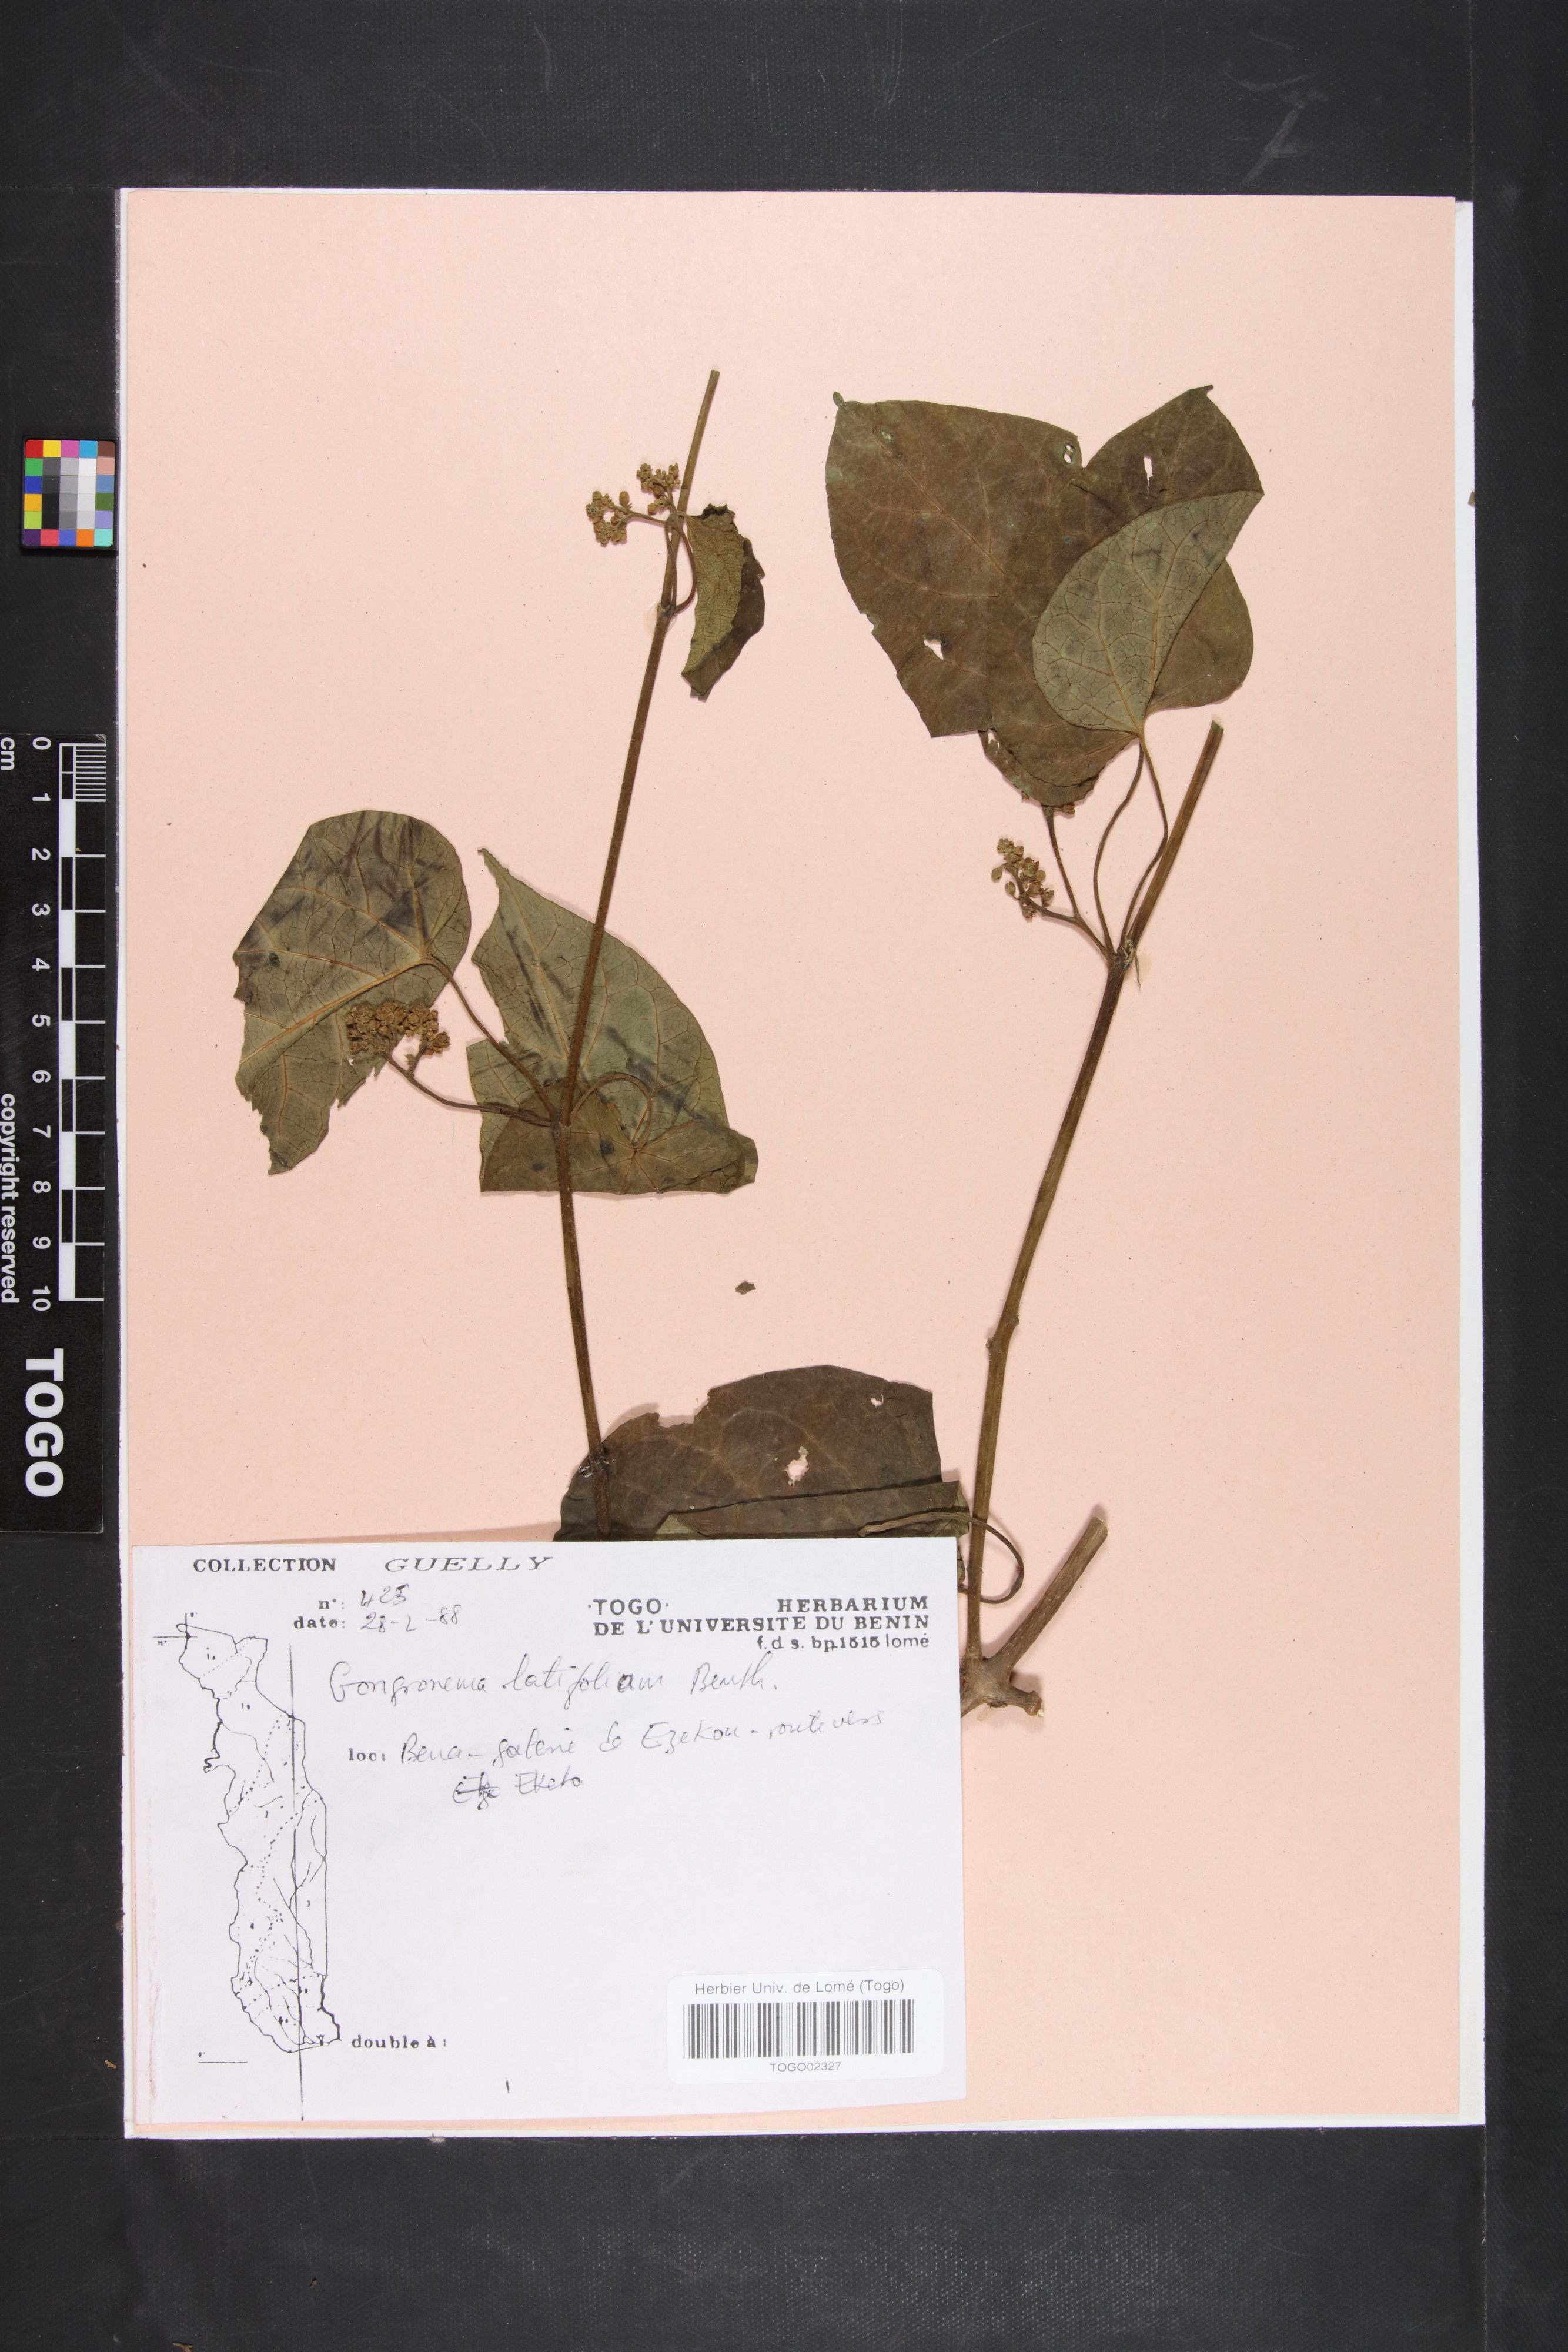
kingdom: Plantae
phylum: Tracheophyta
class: Magnoliopsida
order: Gentianales
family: Apocynaceae
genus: Gongronemopsis
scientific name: Gongronemopsis latifolia
